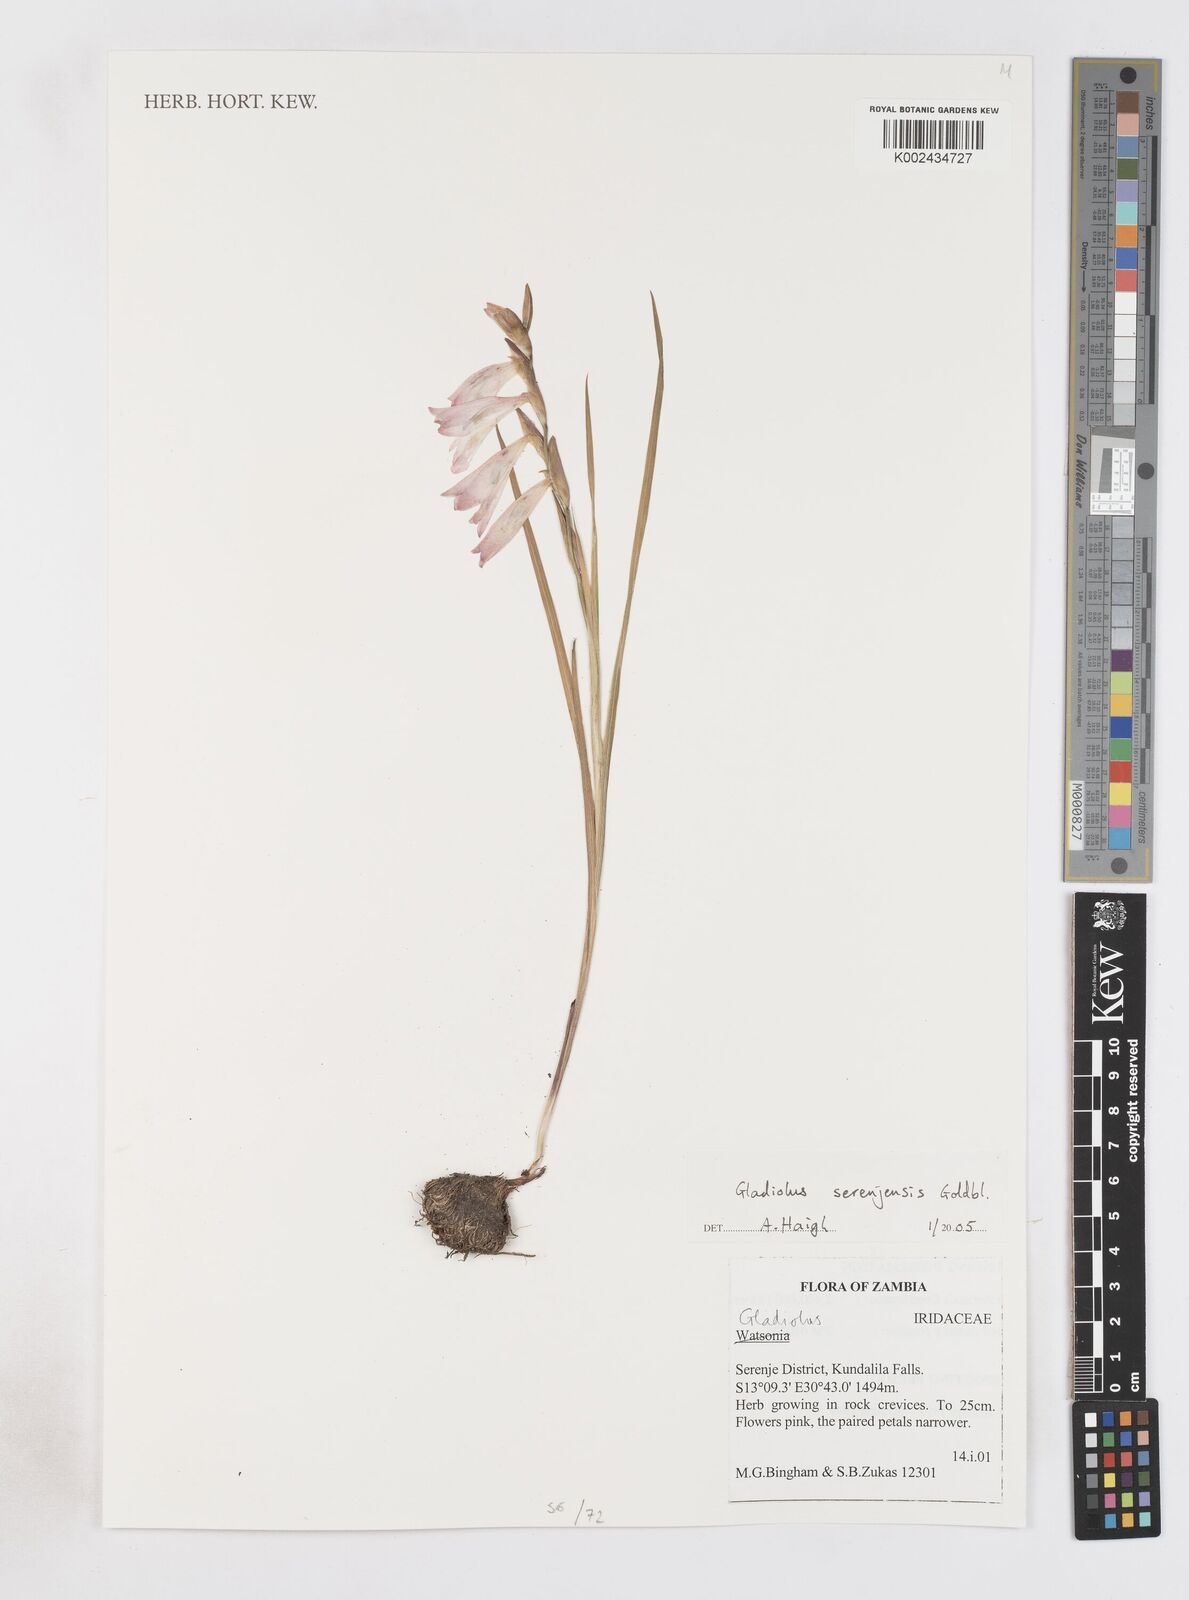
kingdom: Plantae
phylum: Tracheophyta
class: Liliopsida
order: Asparagales
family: Iridaceae
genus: Gladiolus
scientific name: Gladiolus serenjensis
